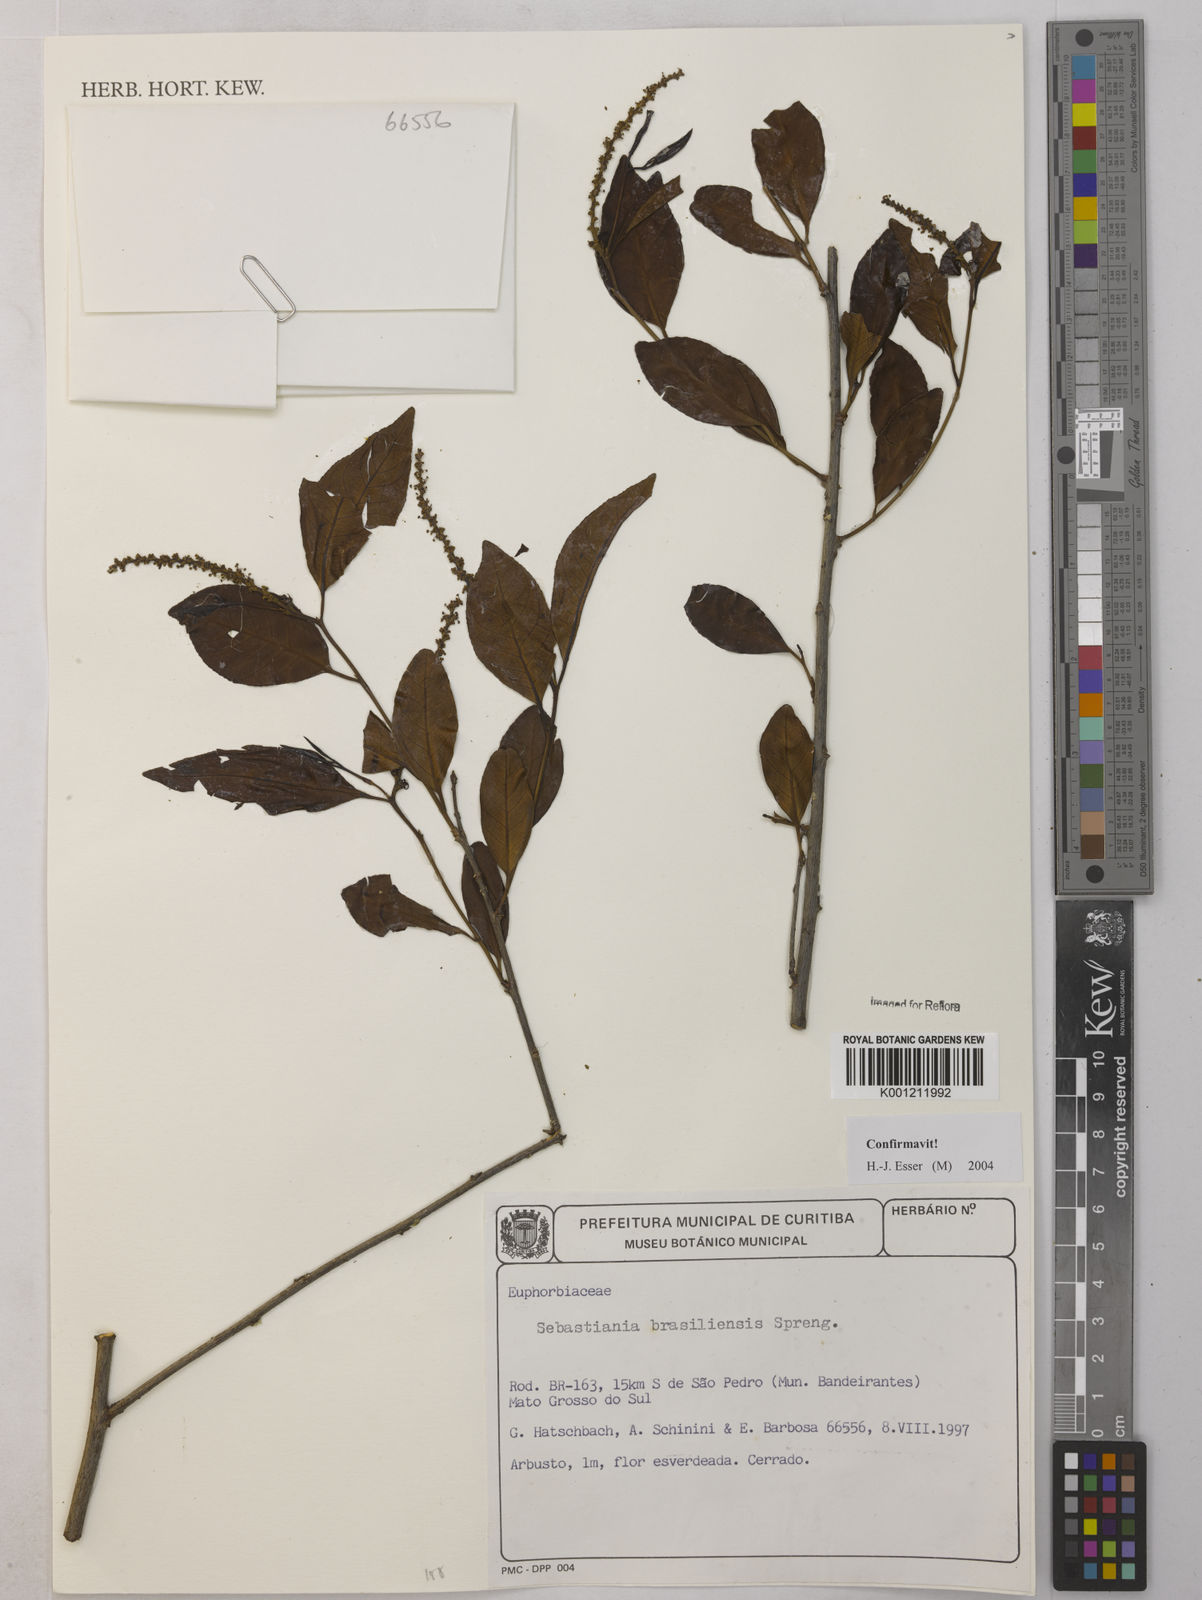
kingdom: Plantae
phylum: Tracheophyta
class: Magnoliopsida
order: Malpighiales
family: Euphorbiaceae
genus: Sebastiania
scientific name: Sebastiania brasiliensis
